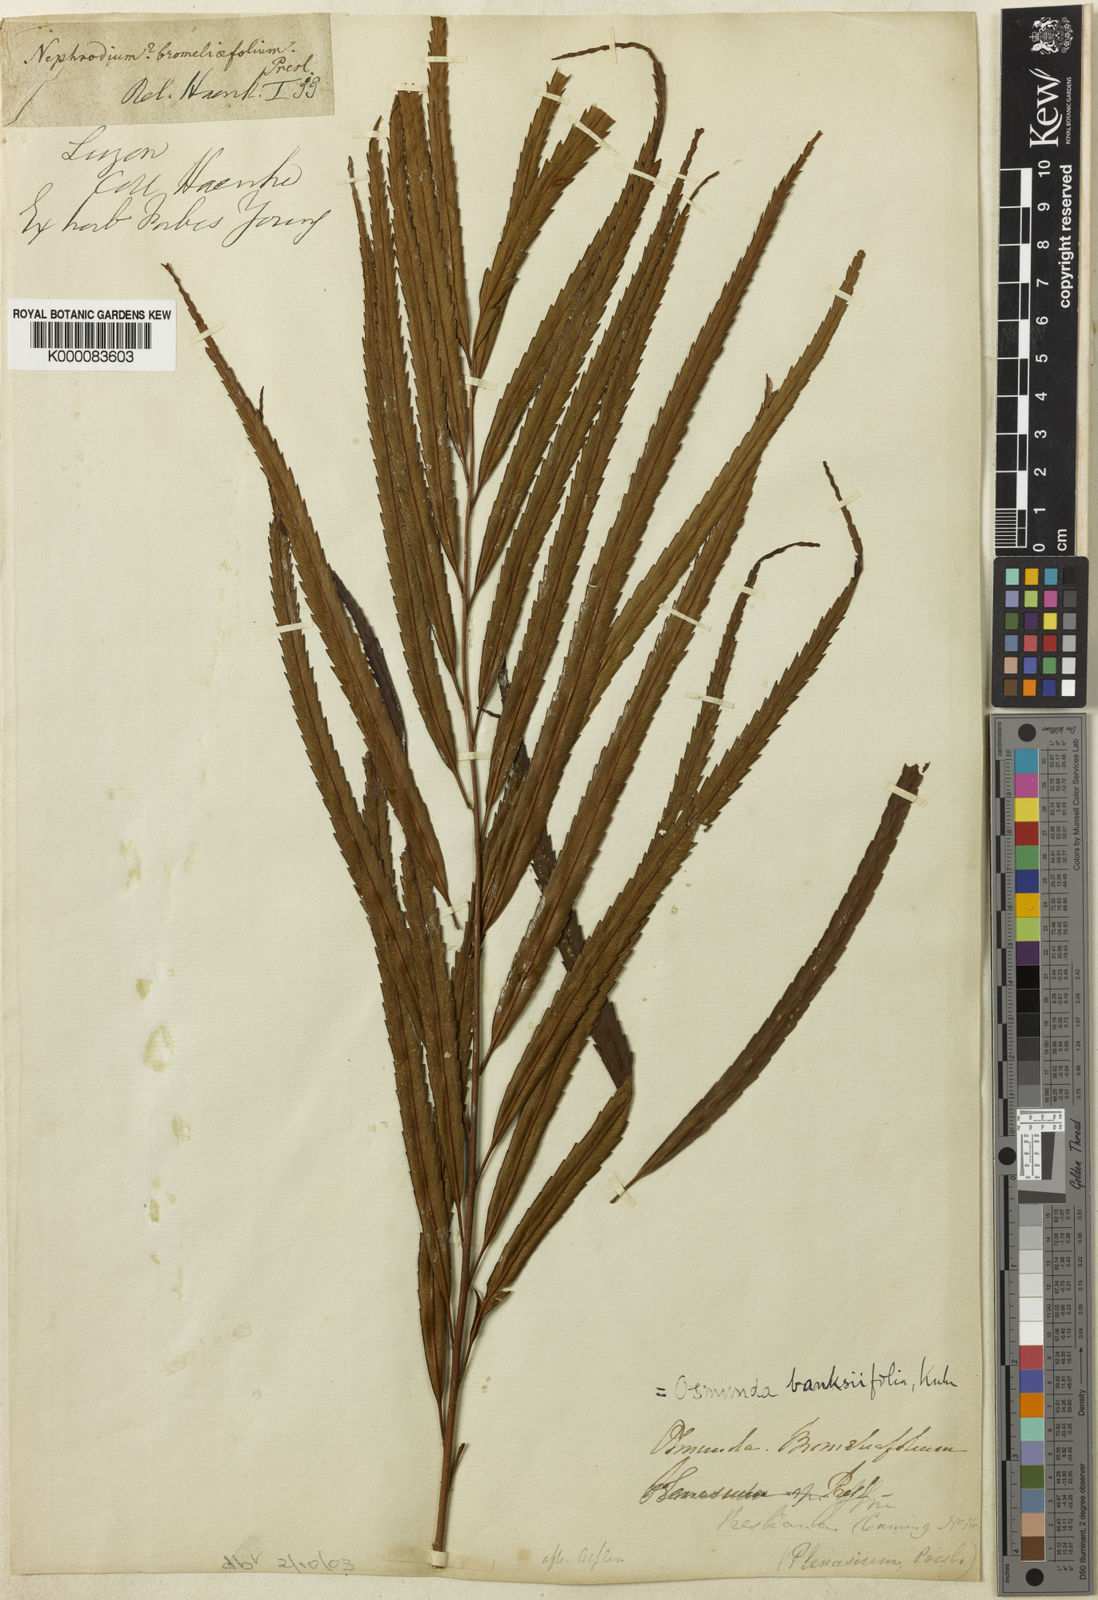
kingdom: Plantae
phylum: Tracheophyta
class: Polypodiopsida
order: Osmundales
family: Osmundaceae
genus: Plenasium
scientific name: Plenasium banksiifolium
